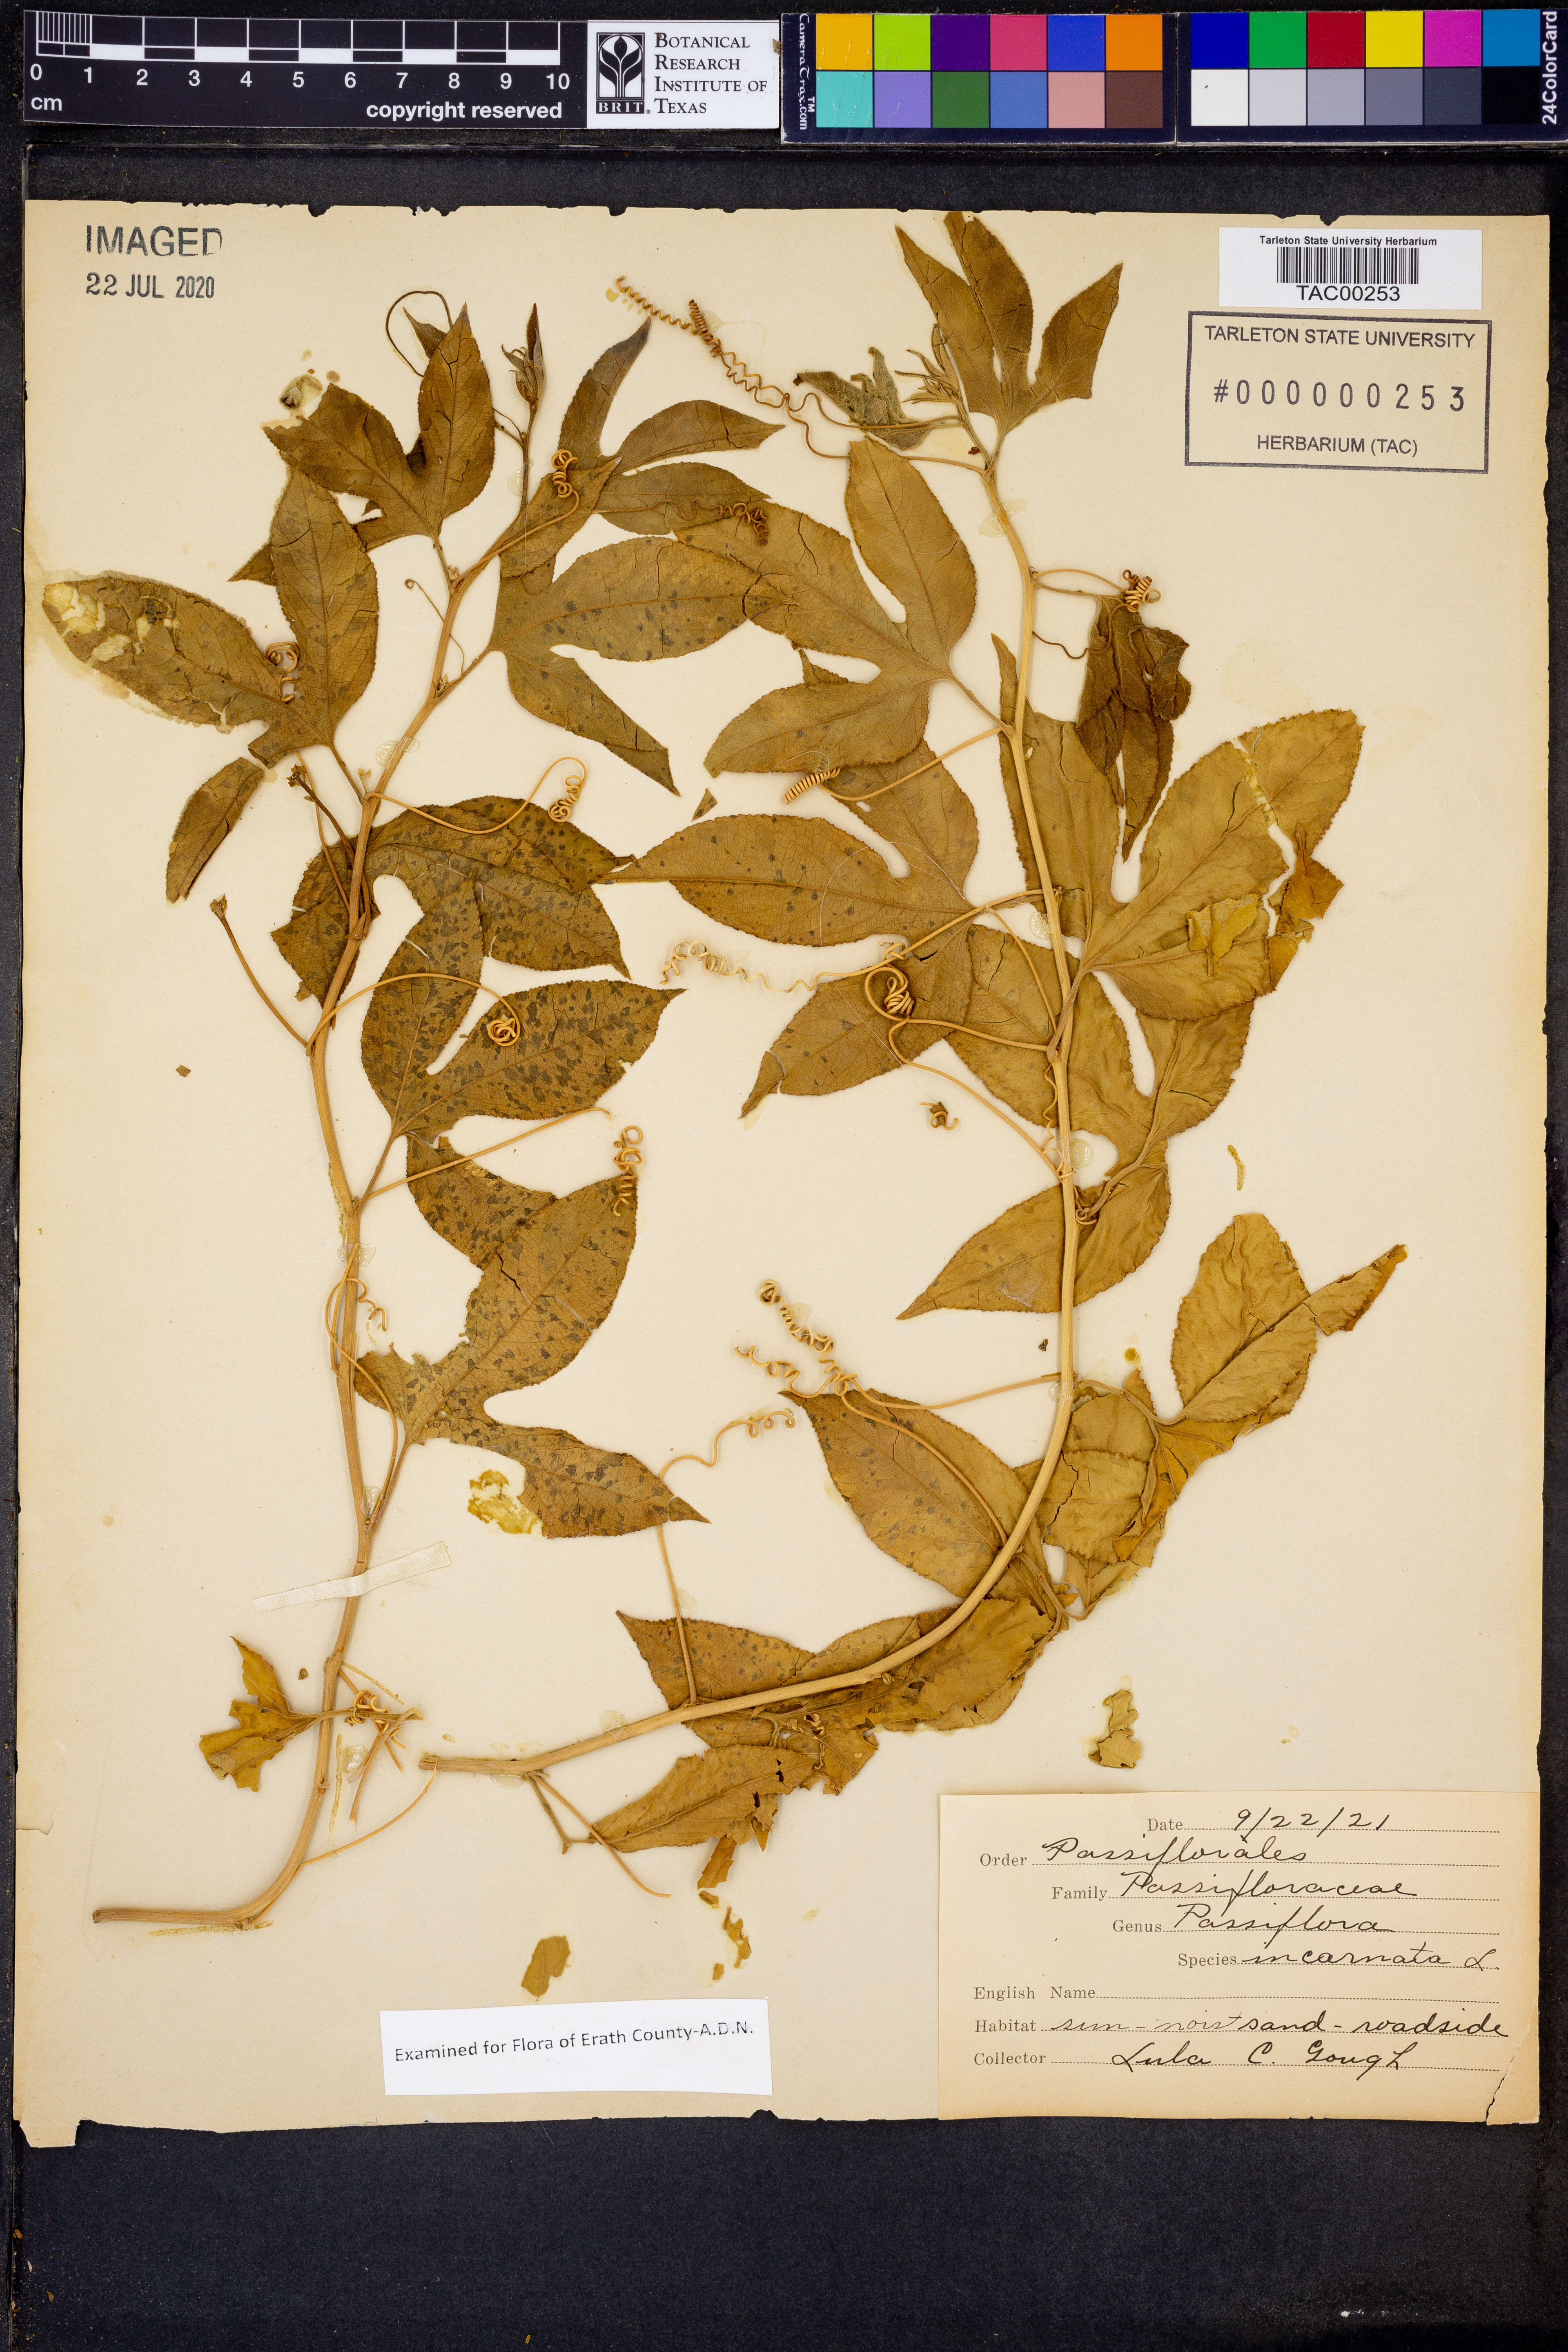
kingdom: Plantae
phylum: Tracheophyta
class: Magnoliopsida
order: Malpighiales
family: Passifloraceae
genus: Passiflora
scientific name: Passiflora incarnata
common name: Apricot-vine
